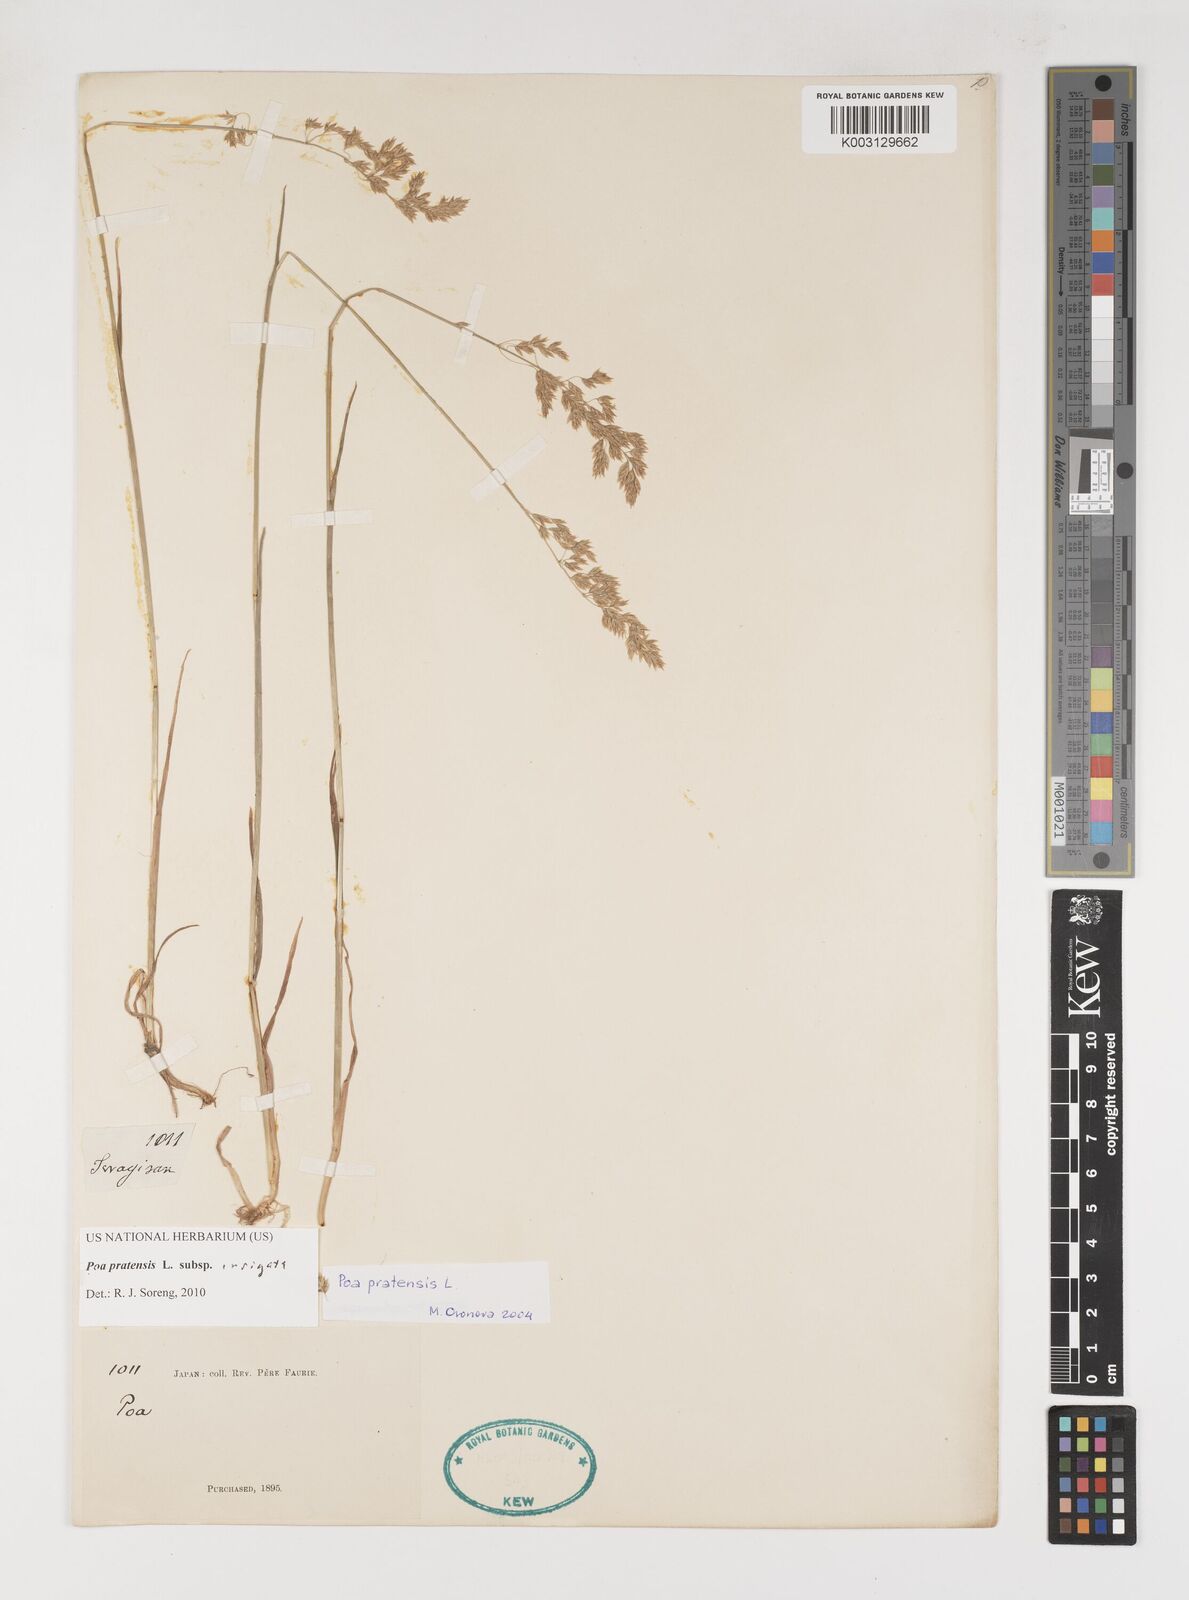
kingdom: Plantae
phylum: Tracheophyta
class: Liliopsida
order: Poales
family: Poaceae
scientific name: Poaceae
